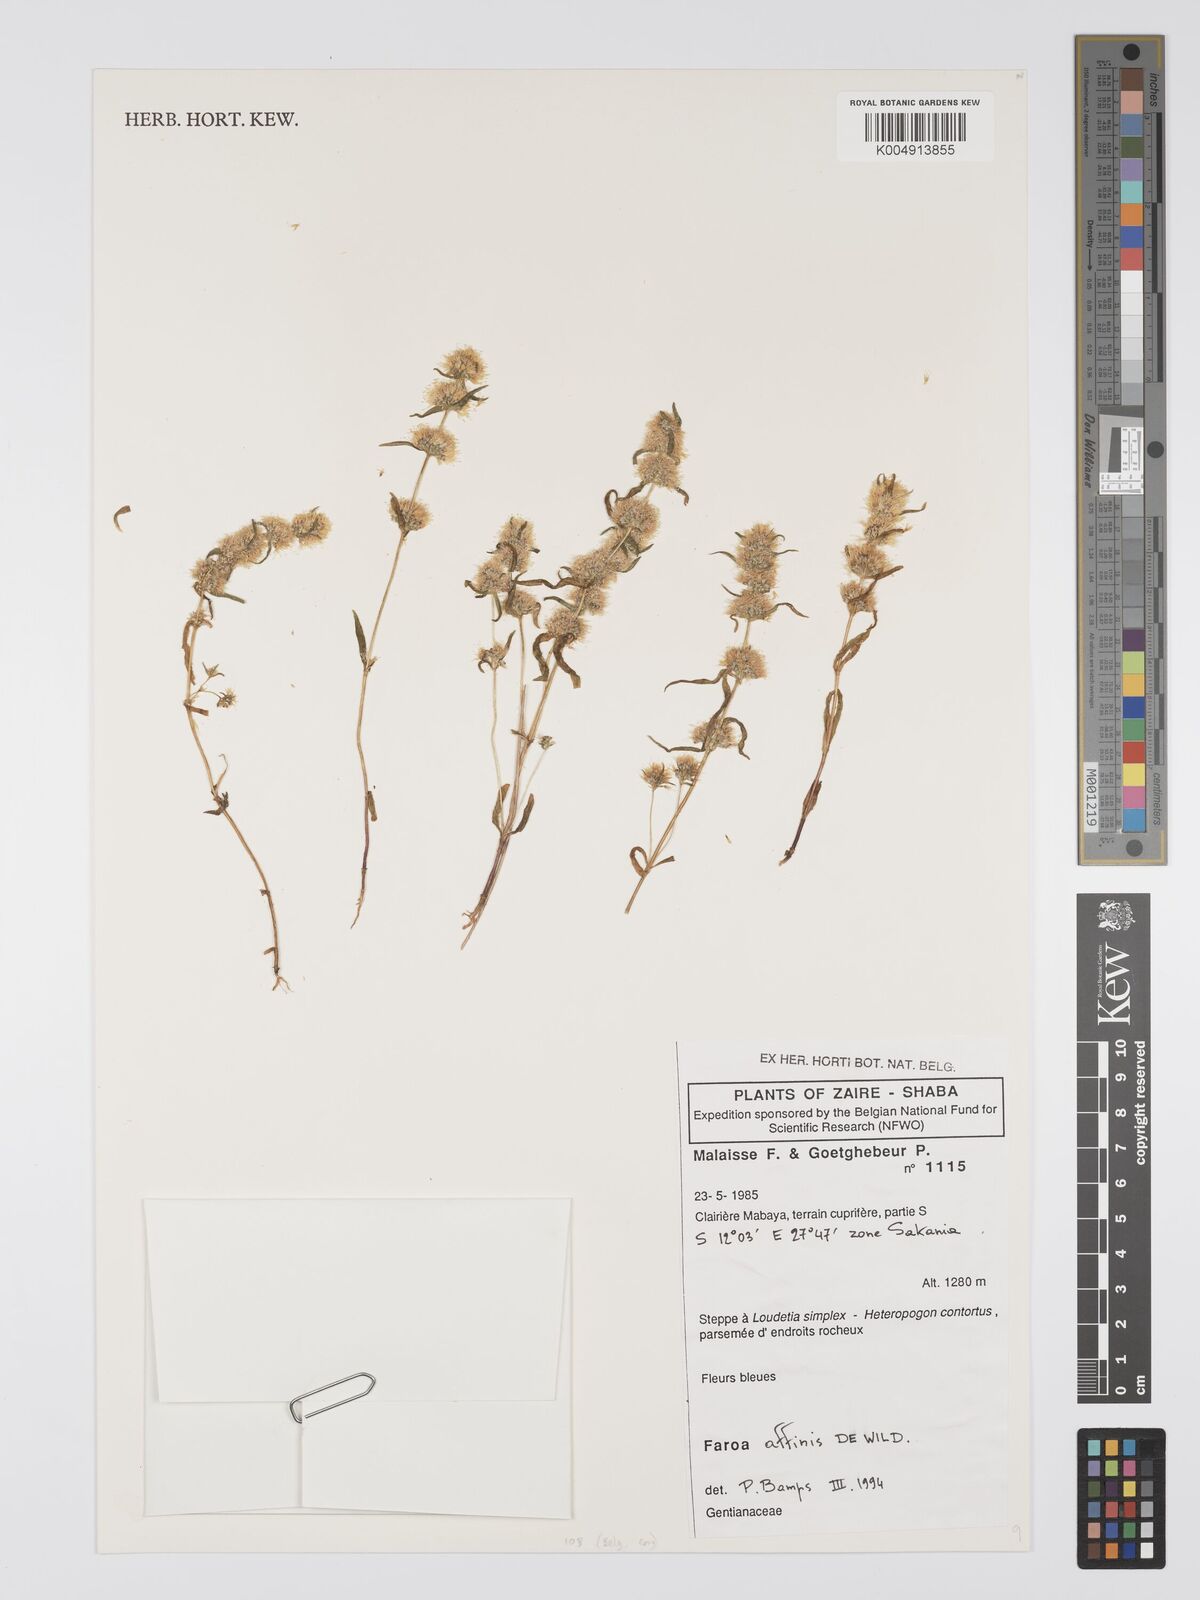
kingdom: Plantae
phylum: Tracheophyta
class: Magnoliopsida
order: Gentianales
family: Gentianaceae
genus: Faroa
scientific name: Faroa affinis
